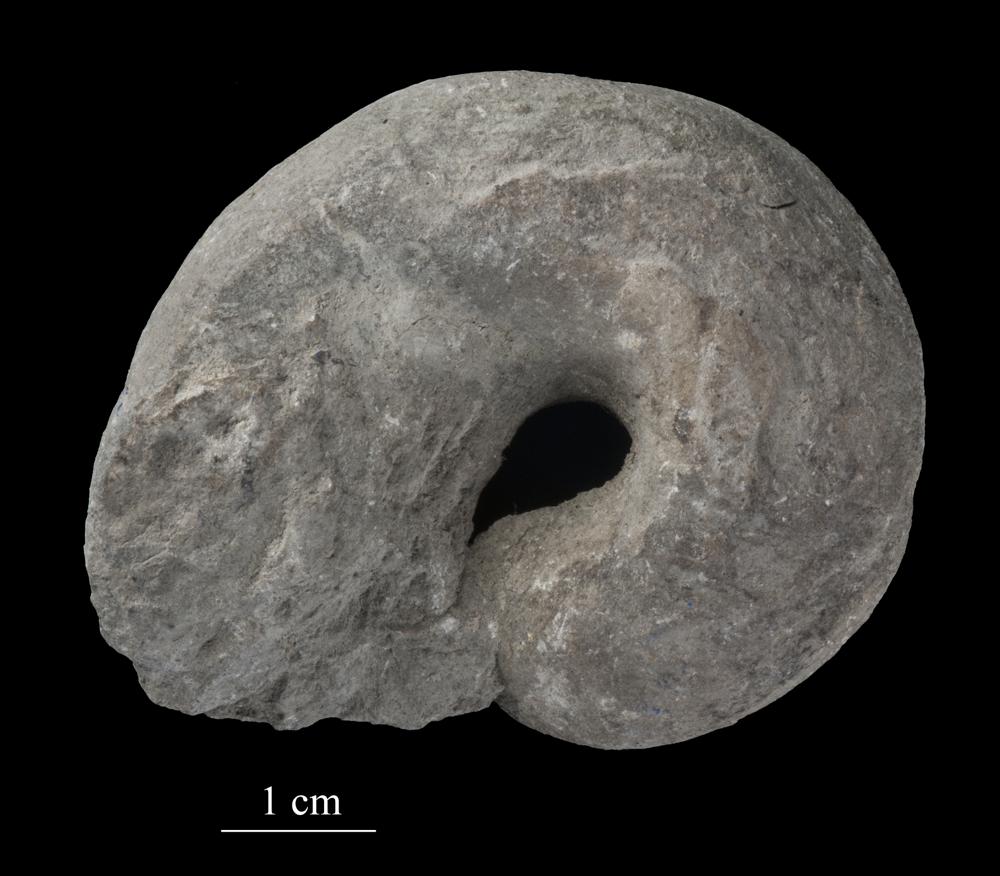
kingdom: Animalia
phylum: Mollusca
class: Gastropoda
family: Lophospiridae
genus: Lophospira
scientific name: Lophospira
